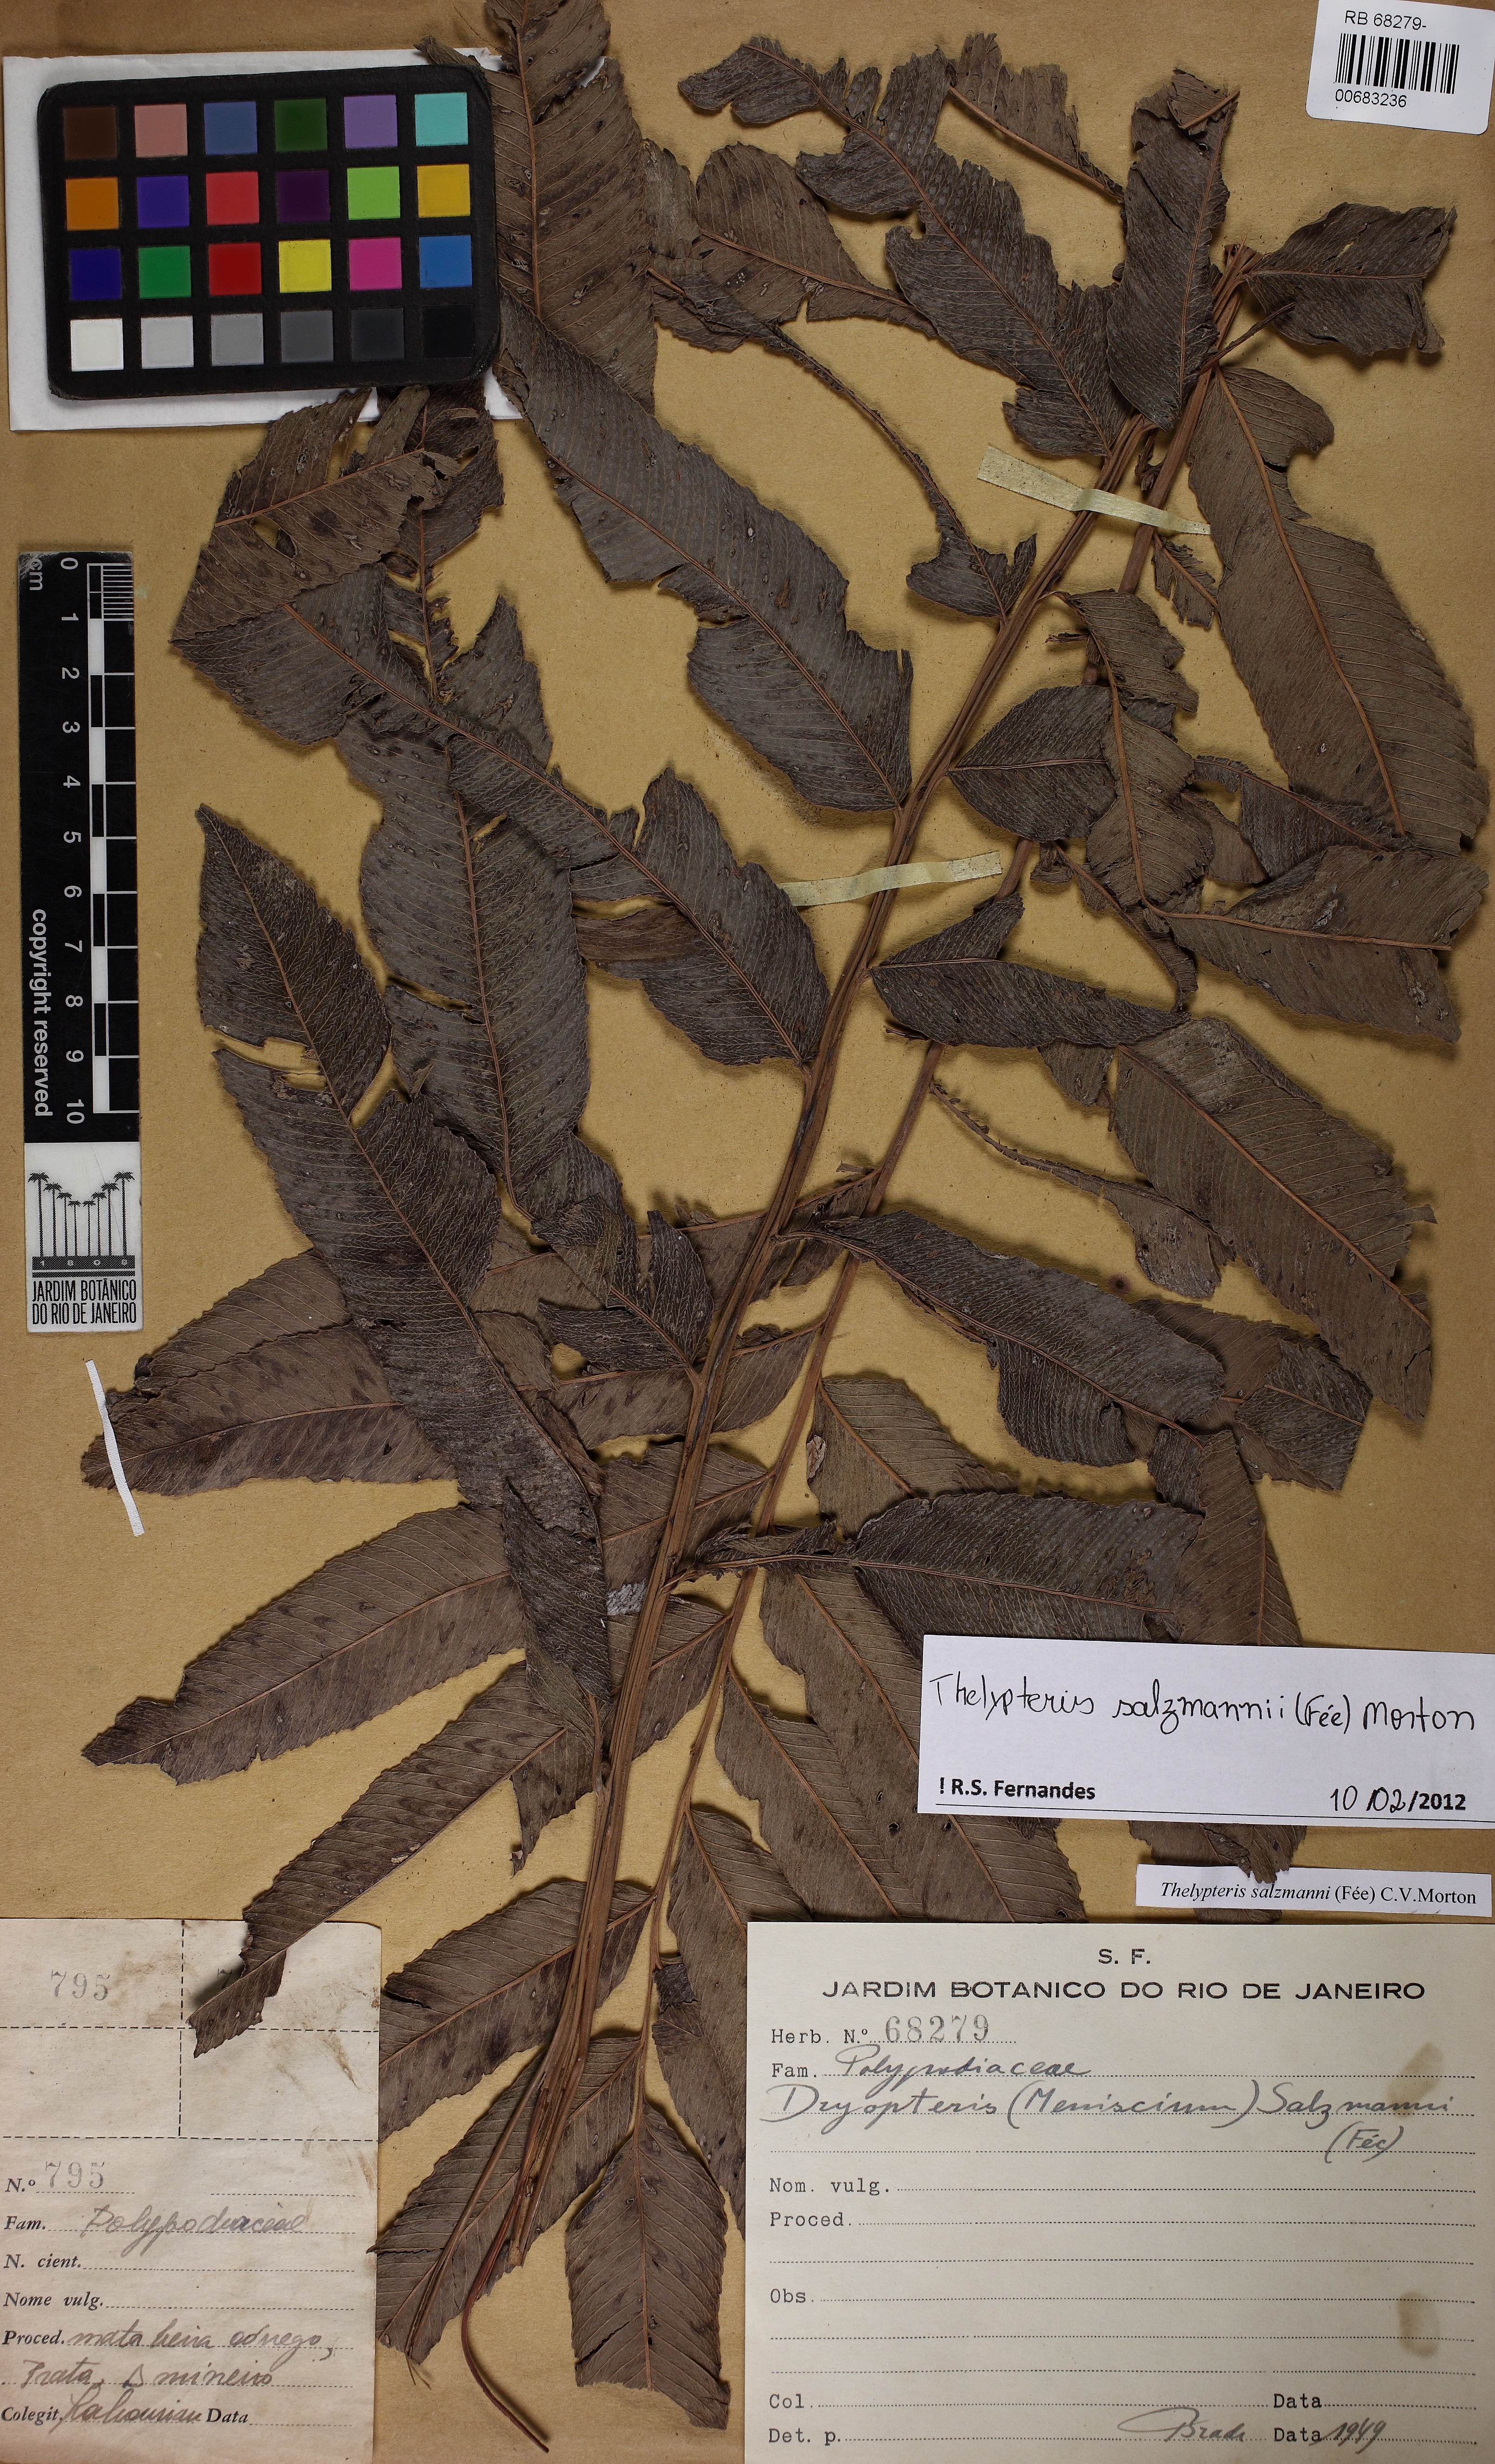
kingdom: Plantae
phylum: Tracheophyta
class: Polypodiopsida
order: Polypodiales
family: Thelypteridaceae
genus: Meniscium
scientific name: Meniscium arborescens
